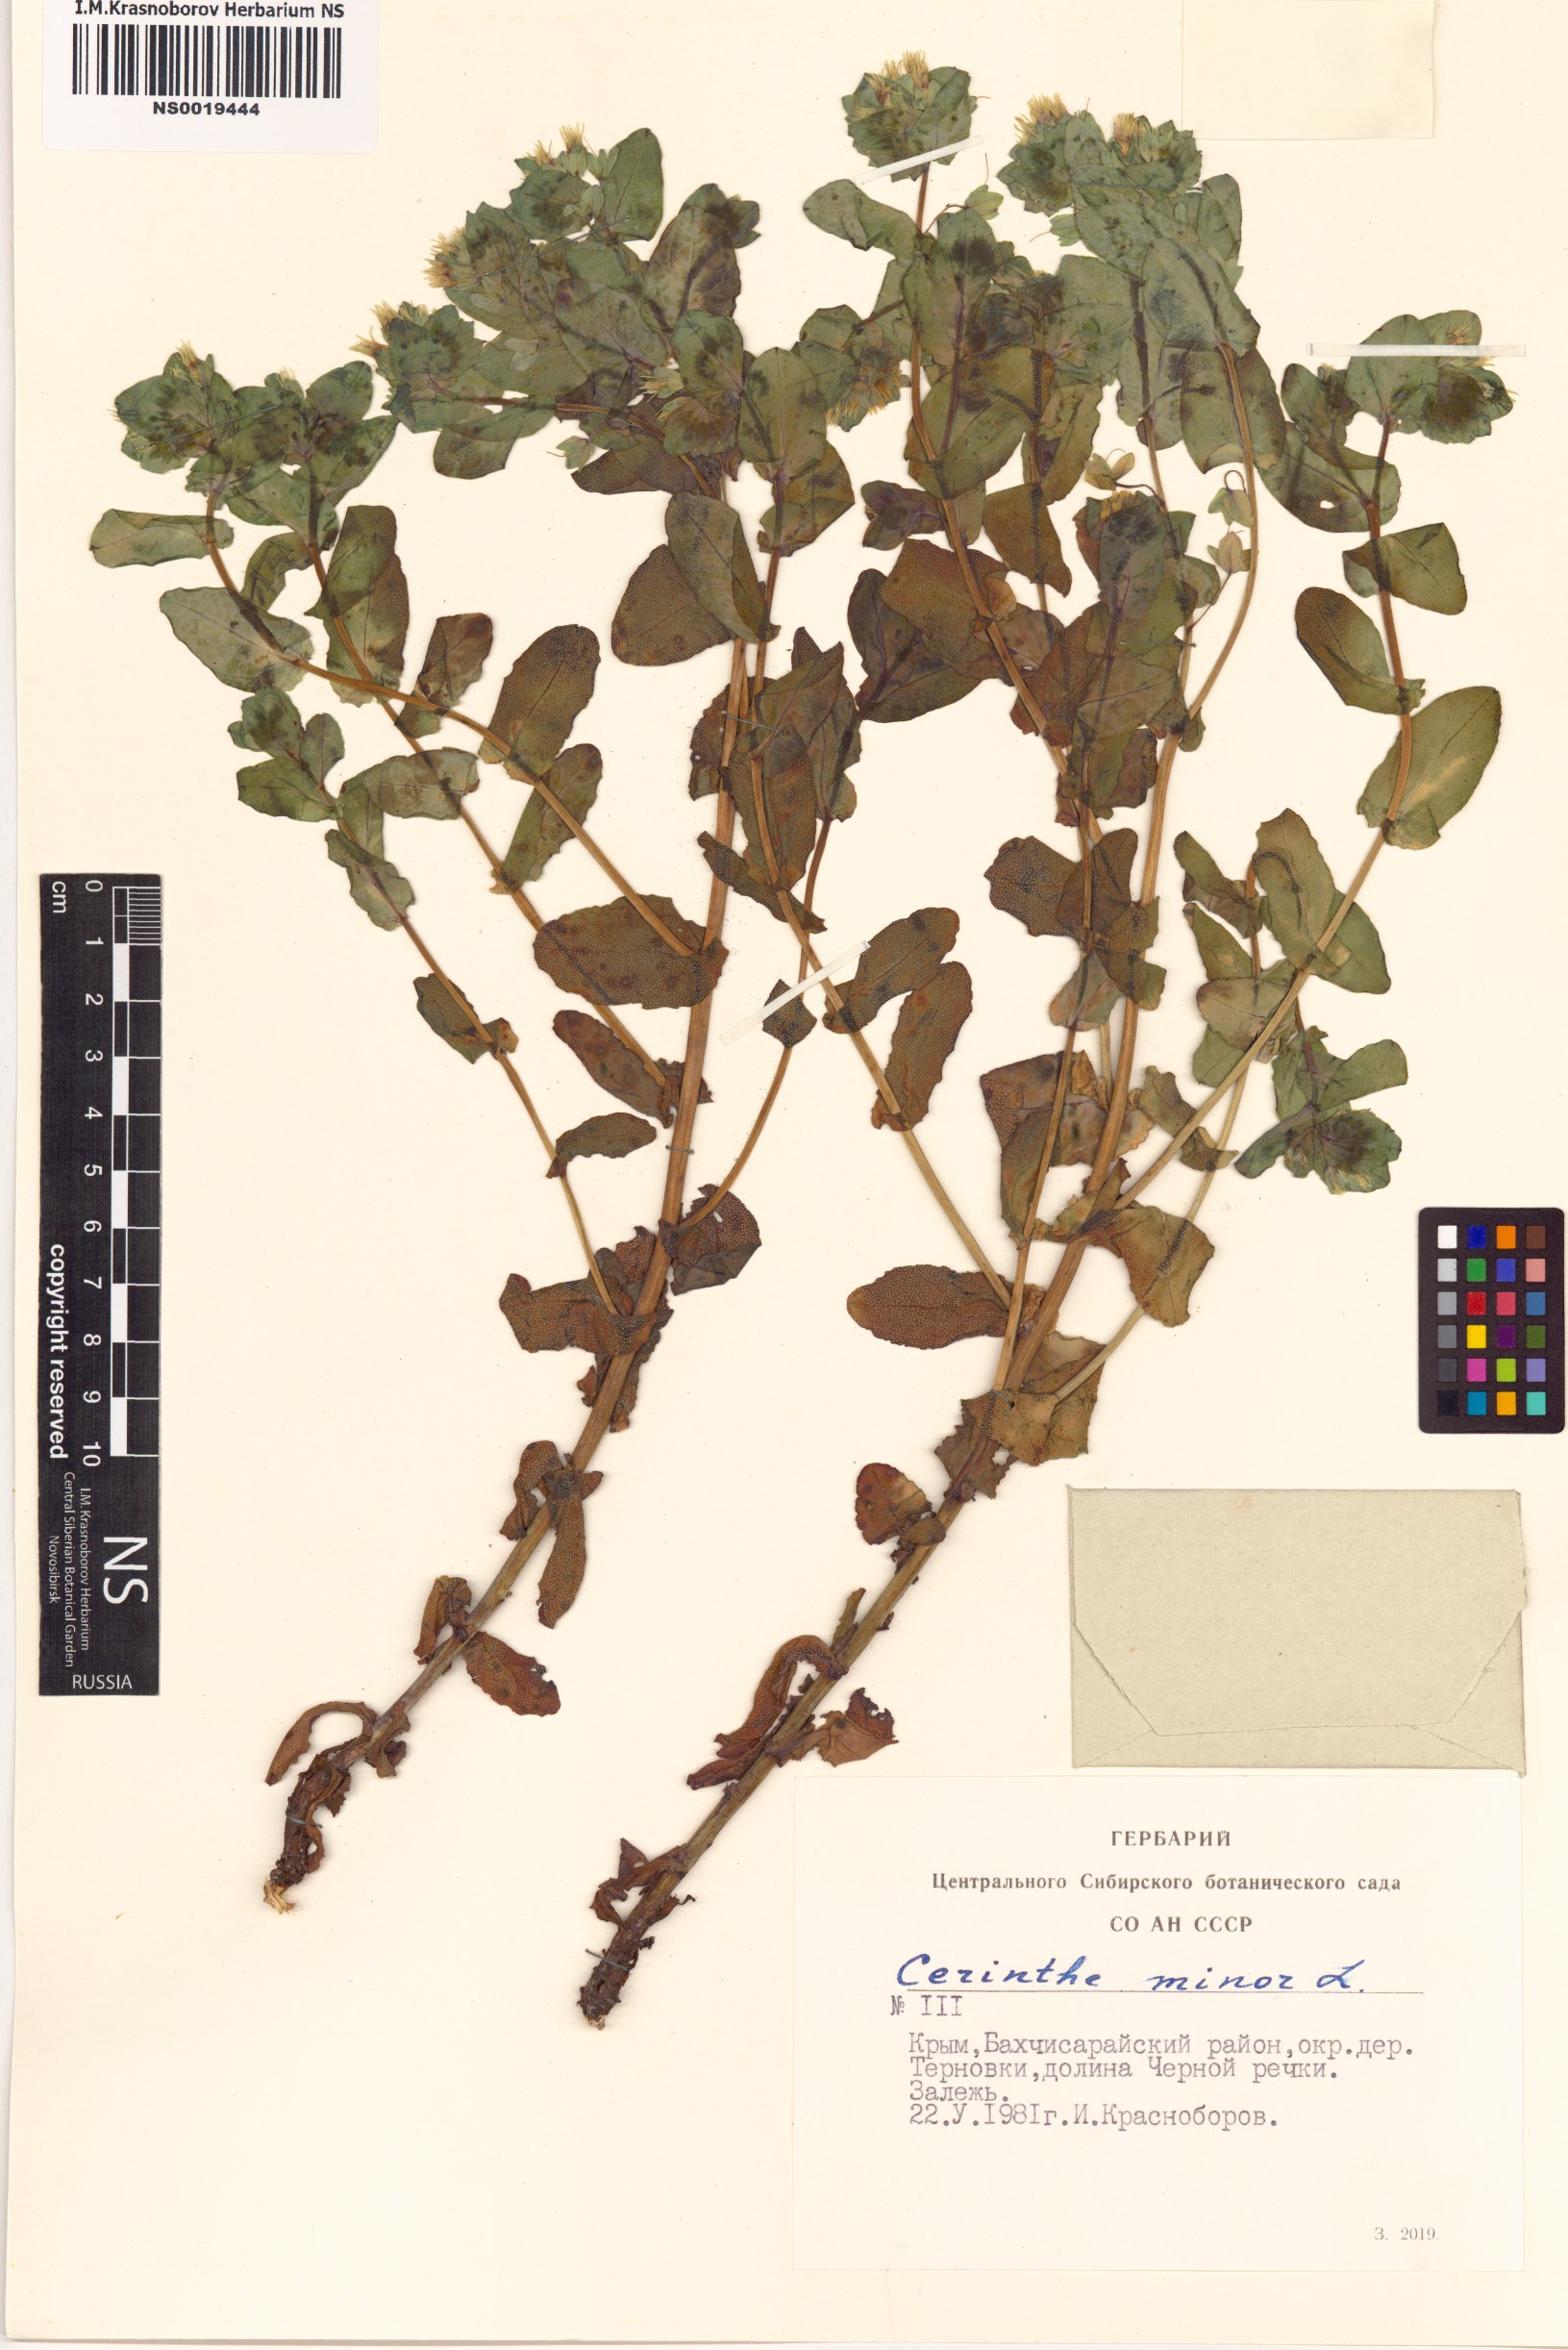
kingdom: Plantae
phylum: Tracheophyta
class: Magnoliopsida
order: Boraginales
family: Boraginaceae
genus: Cerinthe
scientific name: Cerinthe minor
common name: Lesser honeywort
